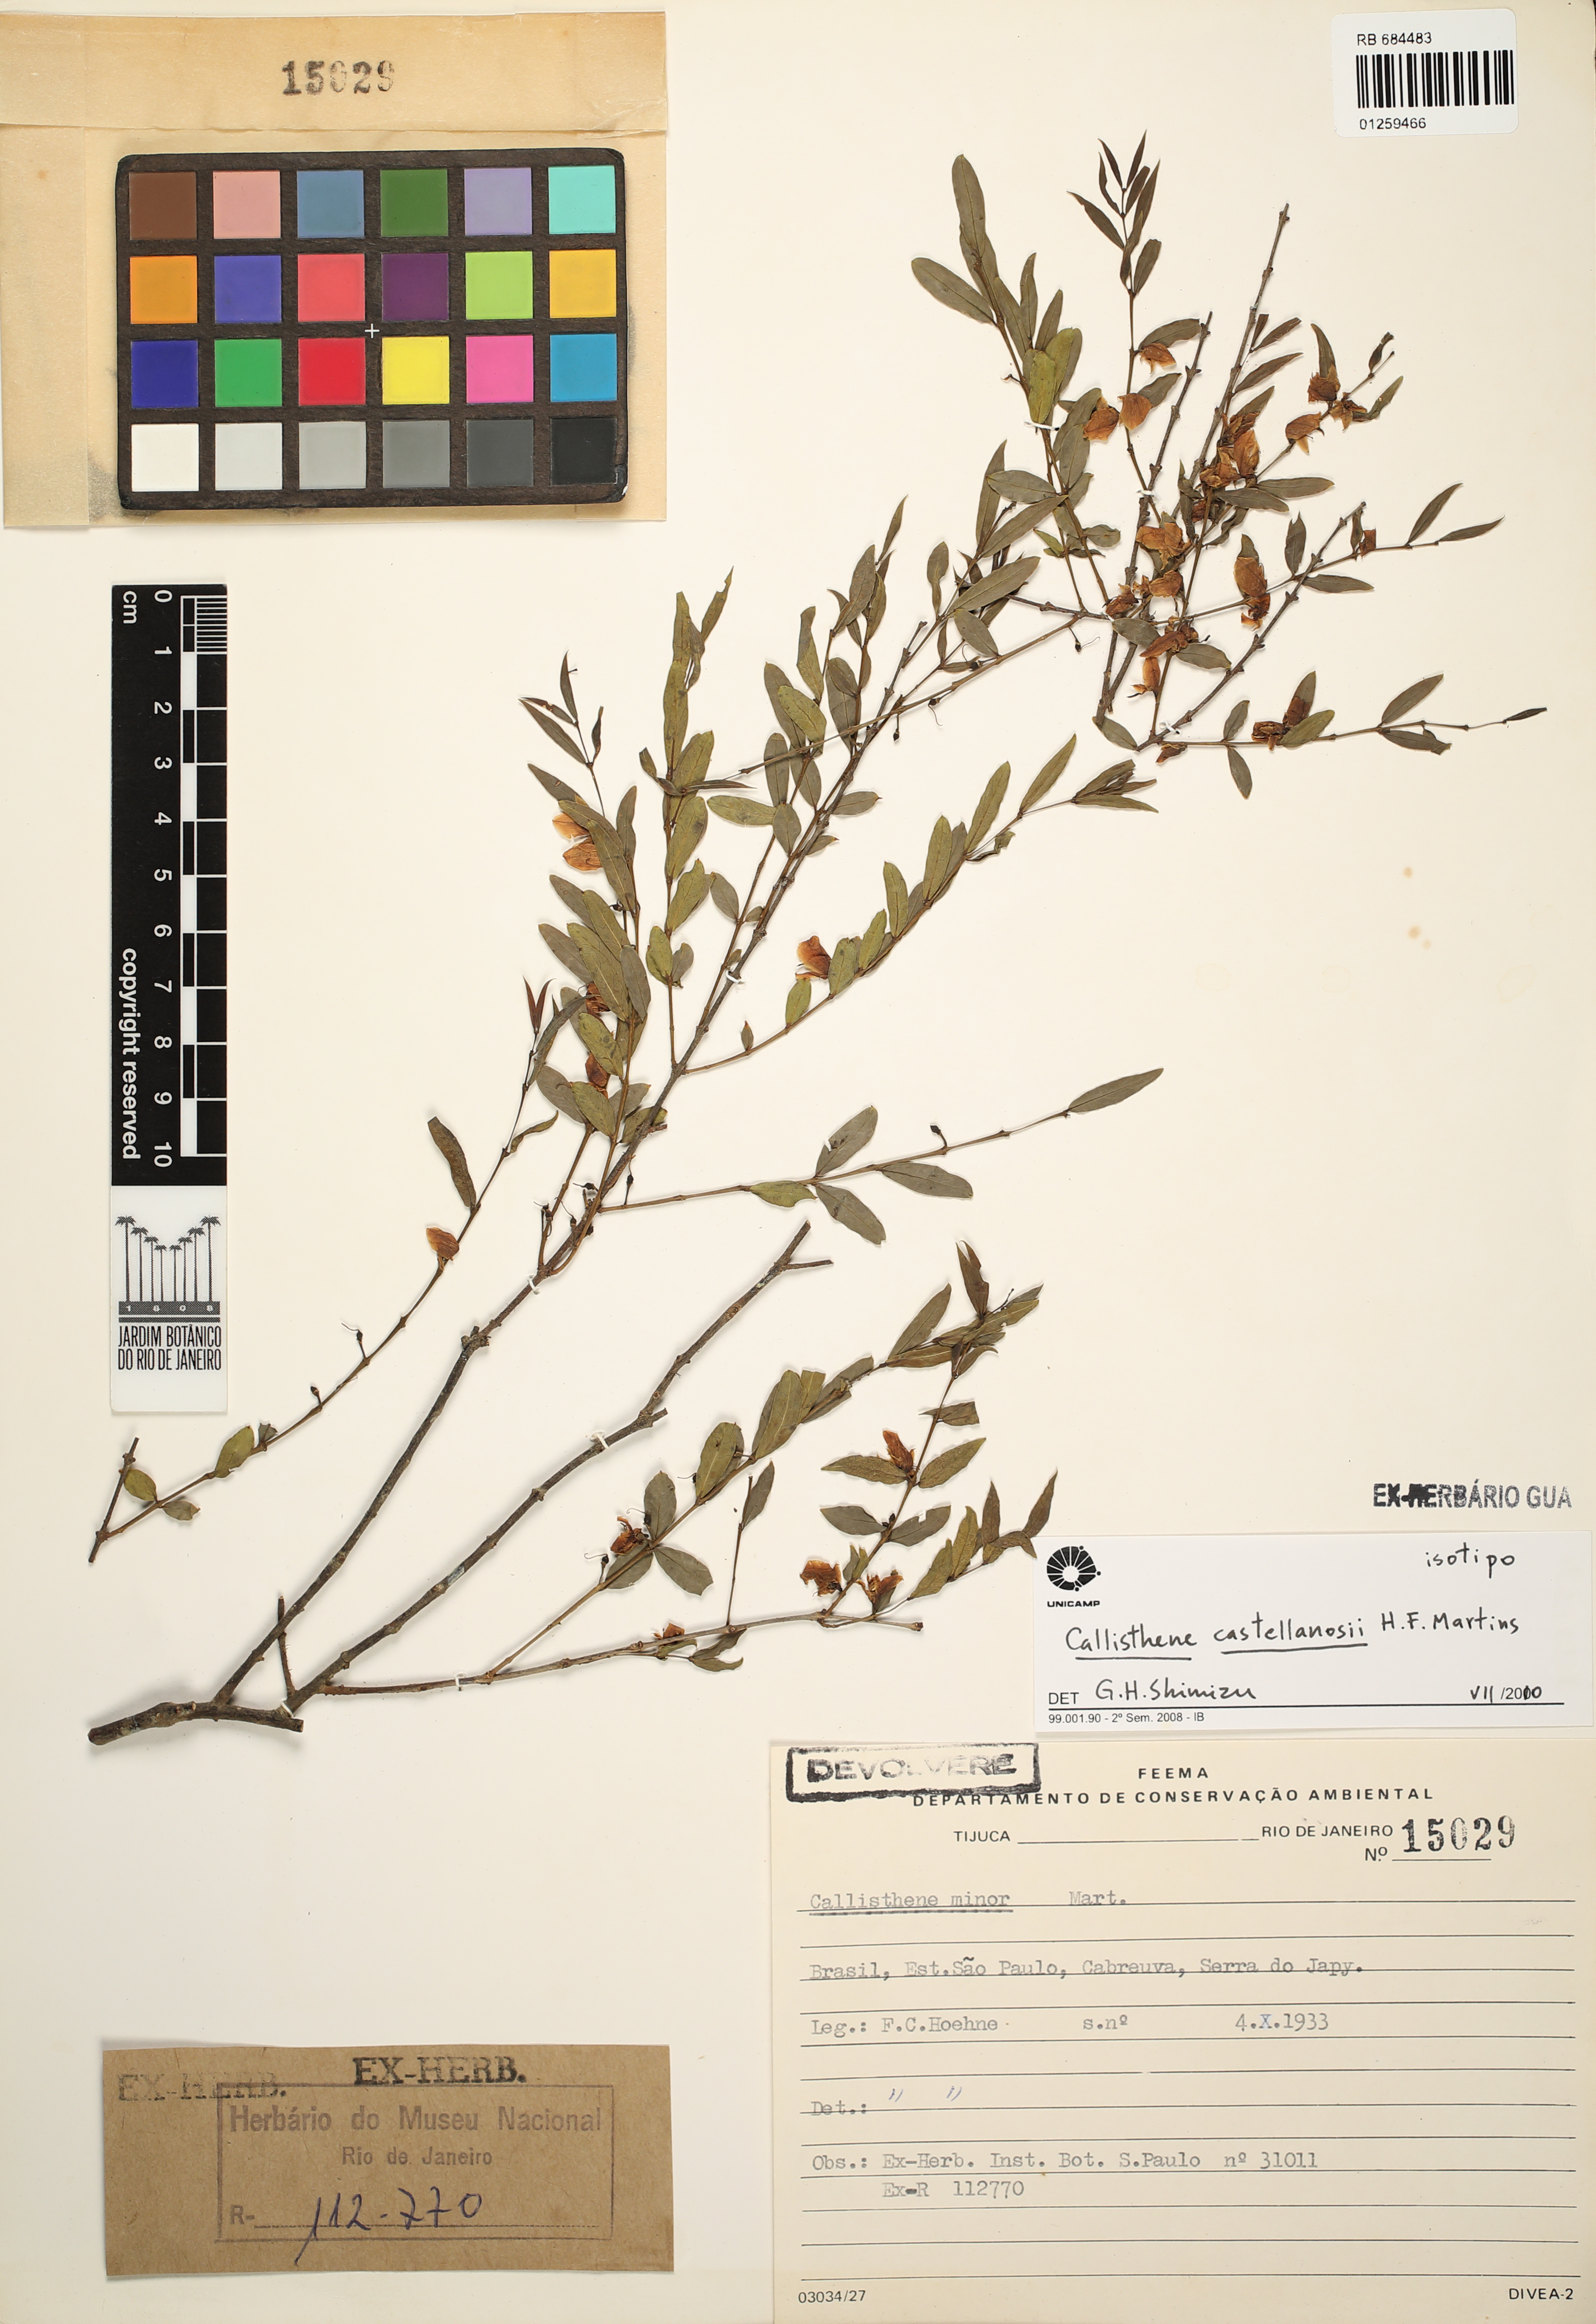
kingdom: Plantae
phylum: Tracheophyta
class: Magnoliopsida
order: Myrtales
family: Vochysiaceae
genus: Callisthene
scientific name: Callisthene castellanosii
